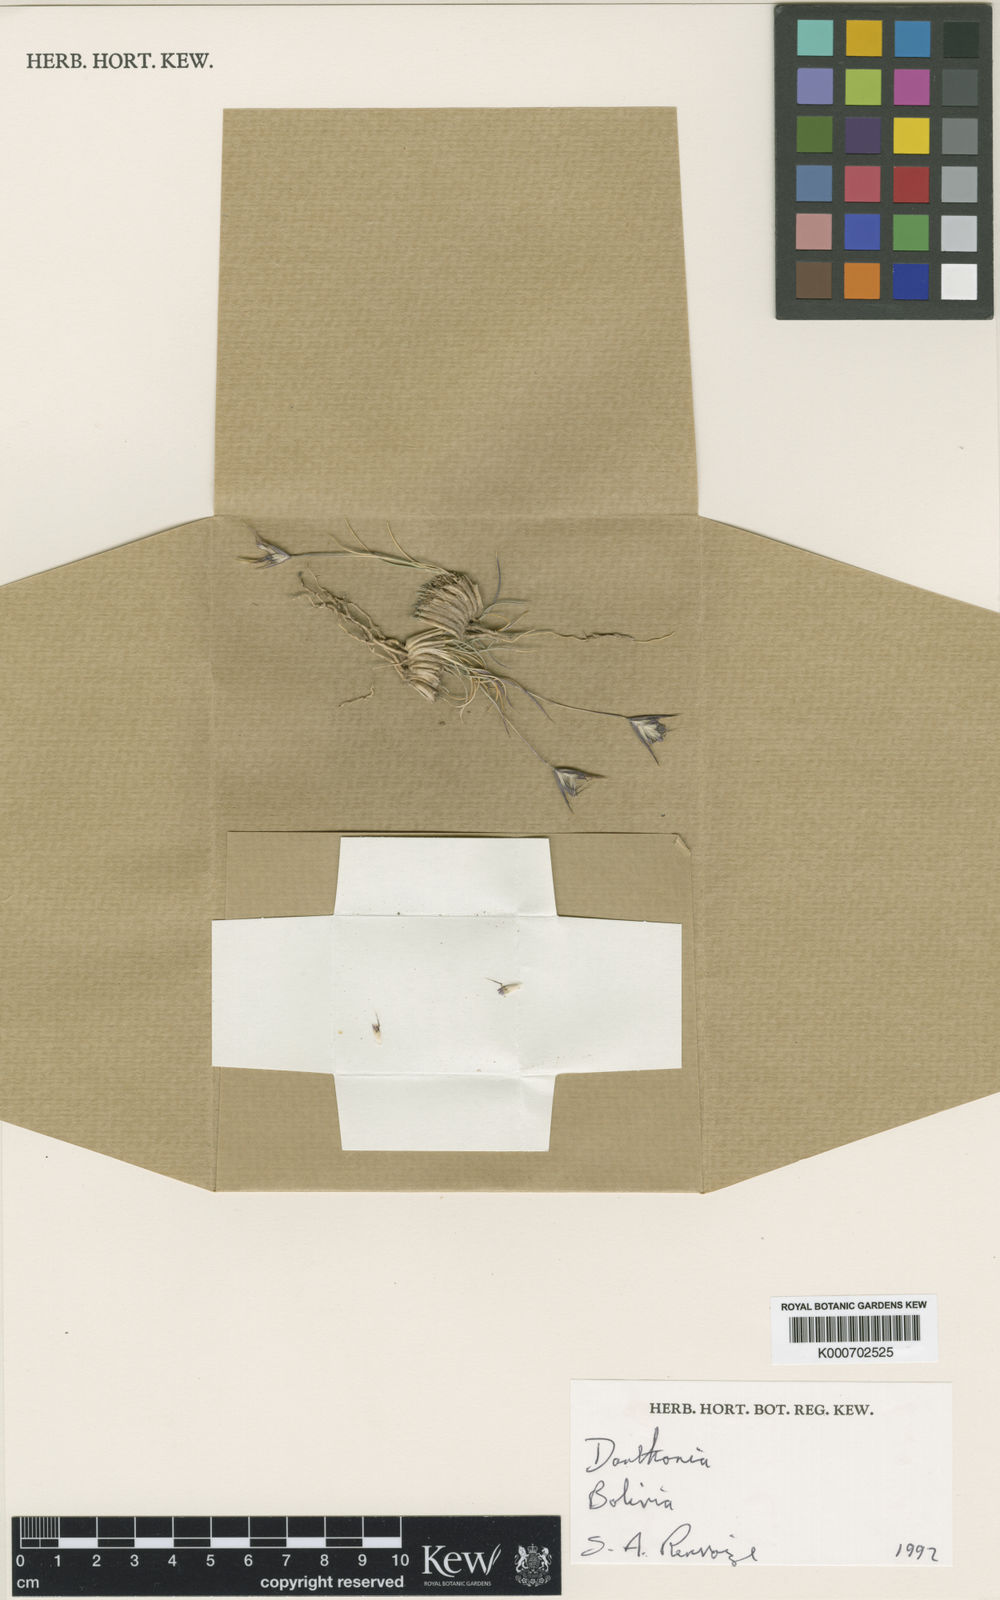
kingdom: Plantae
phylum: Tracheophyta
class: Liliopsida
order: Poales
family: Poaceae
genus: Danthonia
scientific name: Danthonia
